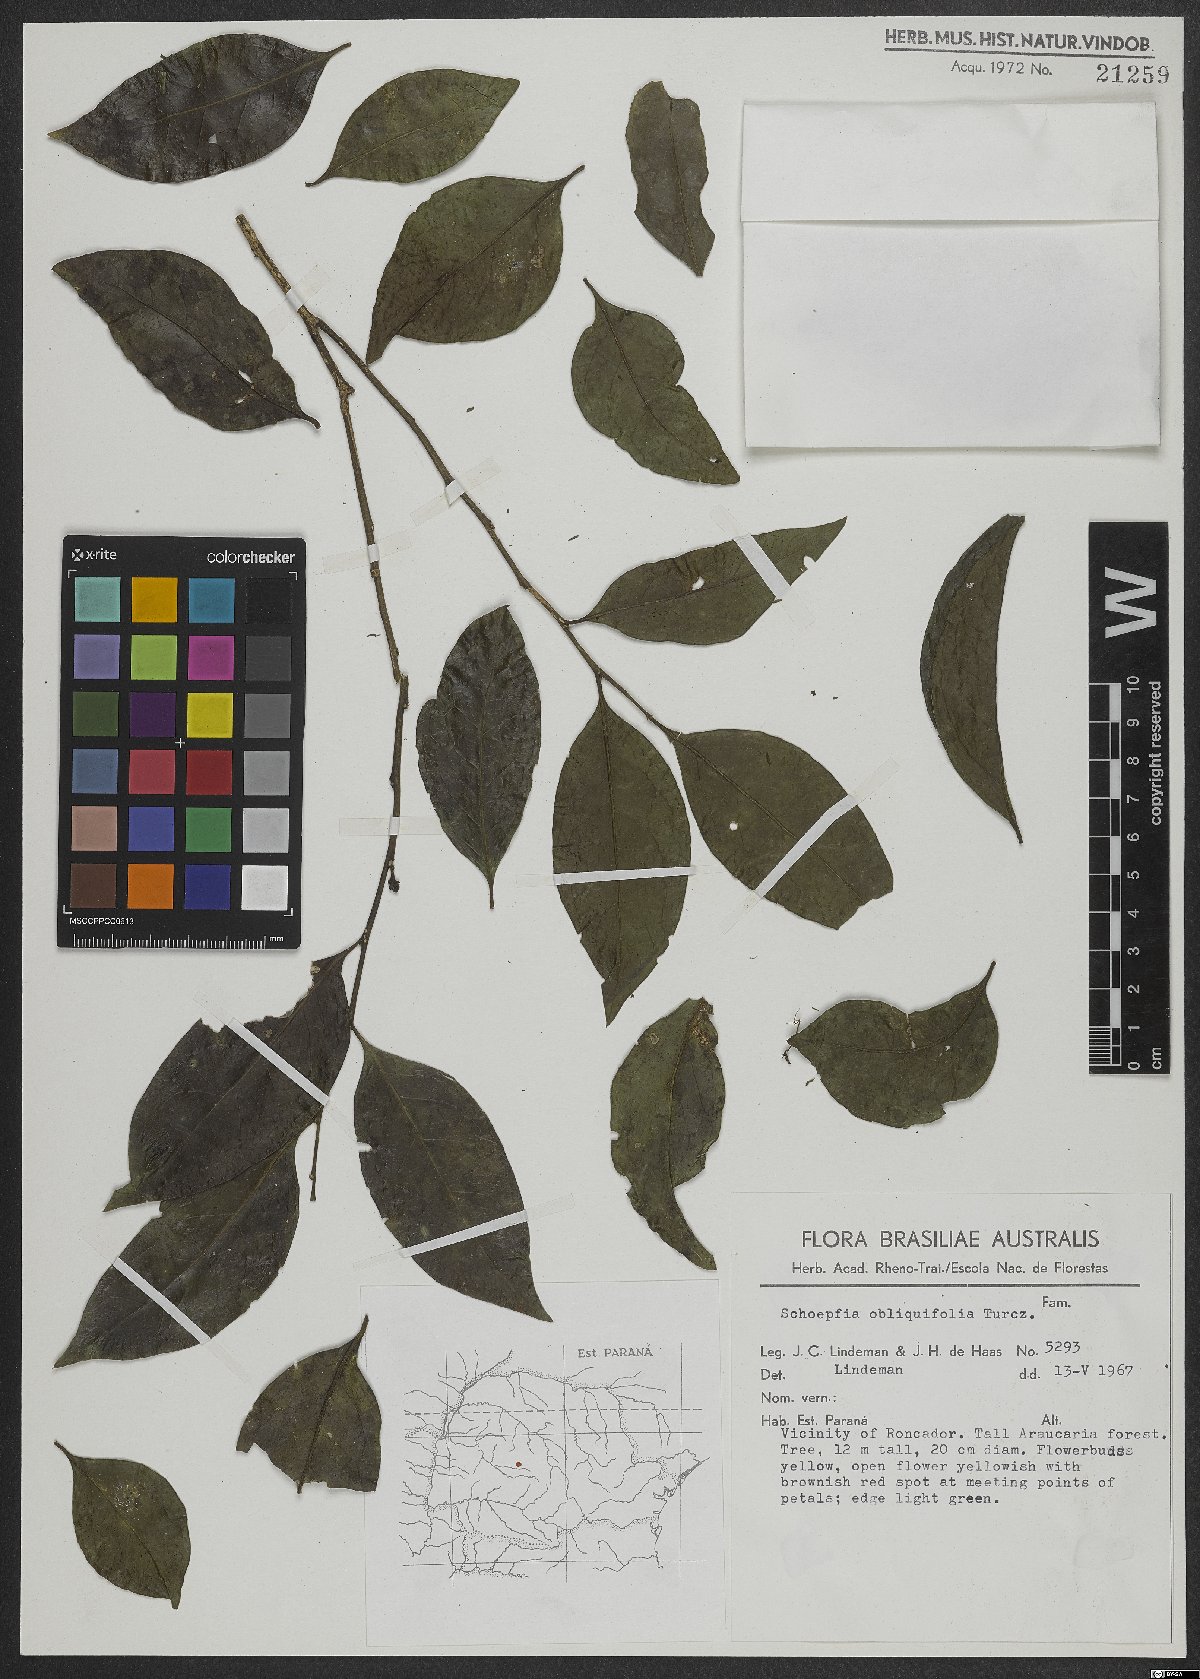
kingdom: Plantae
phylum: Tracheophyta
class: Magnoliopsida
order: Santalales
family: Schoepfiaceae
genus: Schoepfia
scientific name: Schoepfia brasiliensis
